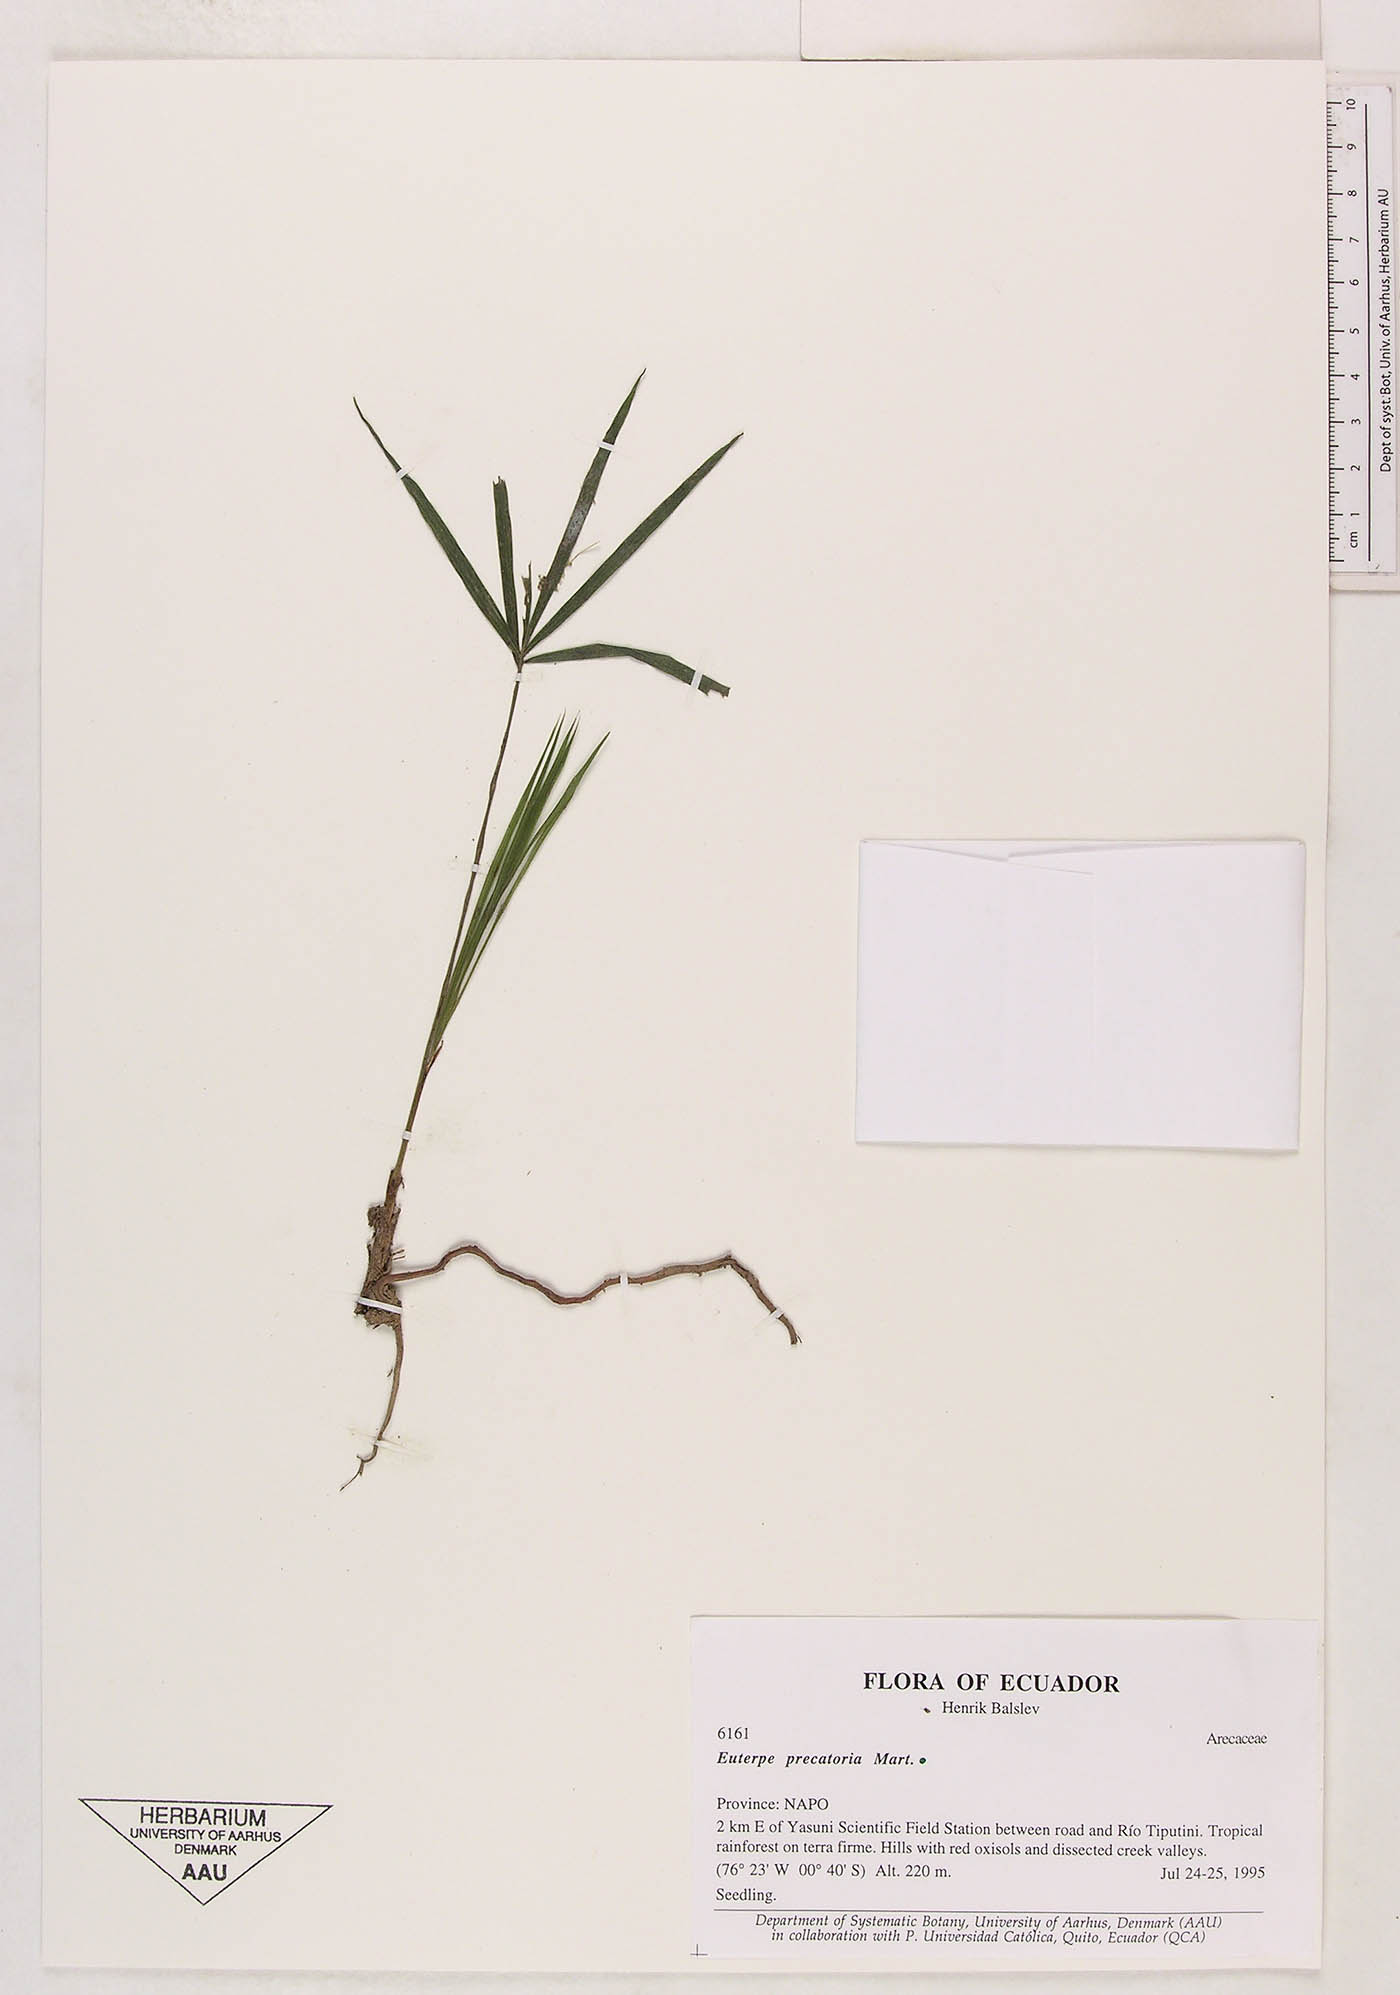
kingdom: Plantae
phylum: Tracheophyta
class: Liliopsida
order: Arecales
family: Arecaceae
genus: Euterpe
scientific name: Euterpe precatoria
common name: Mountain-cabbage
